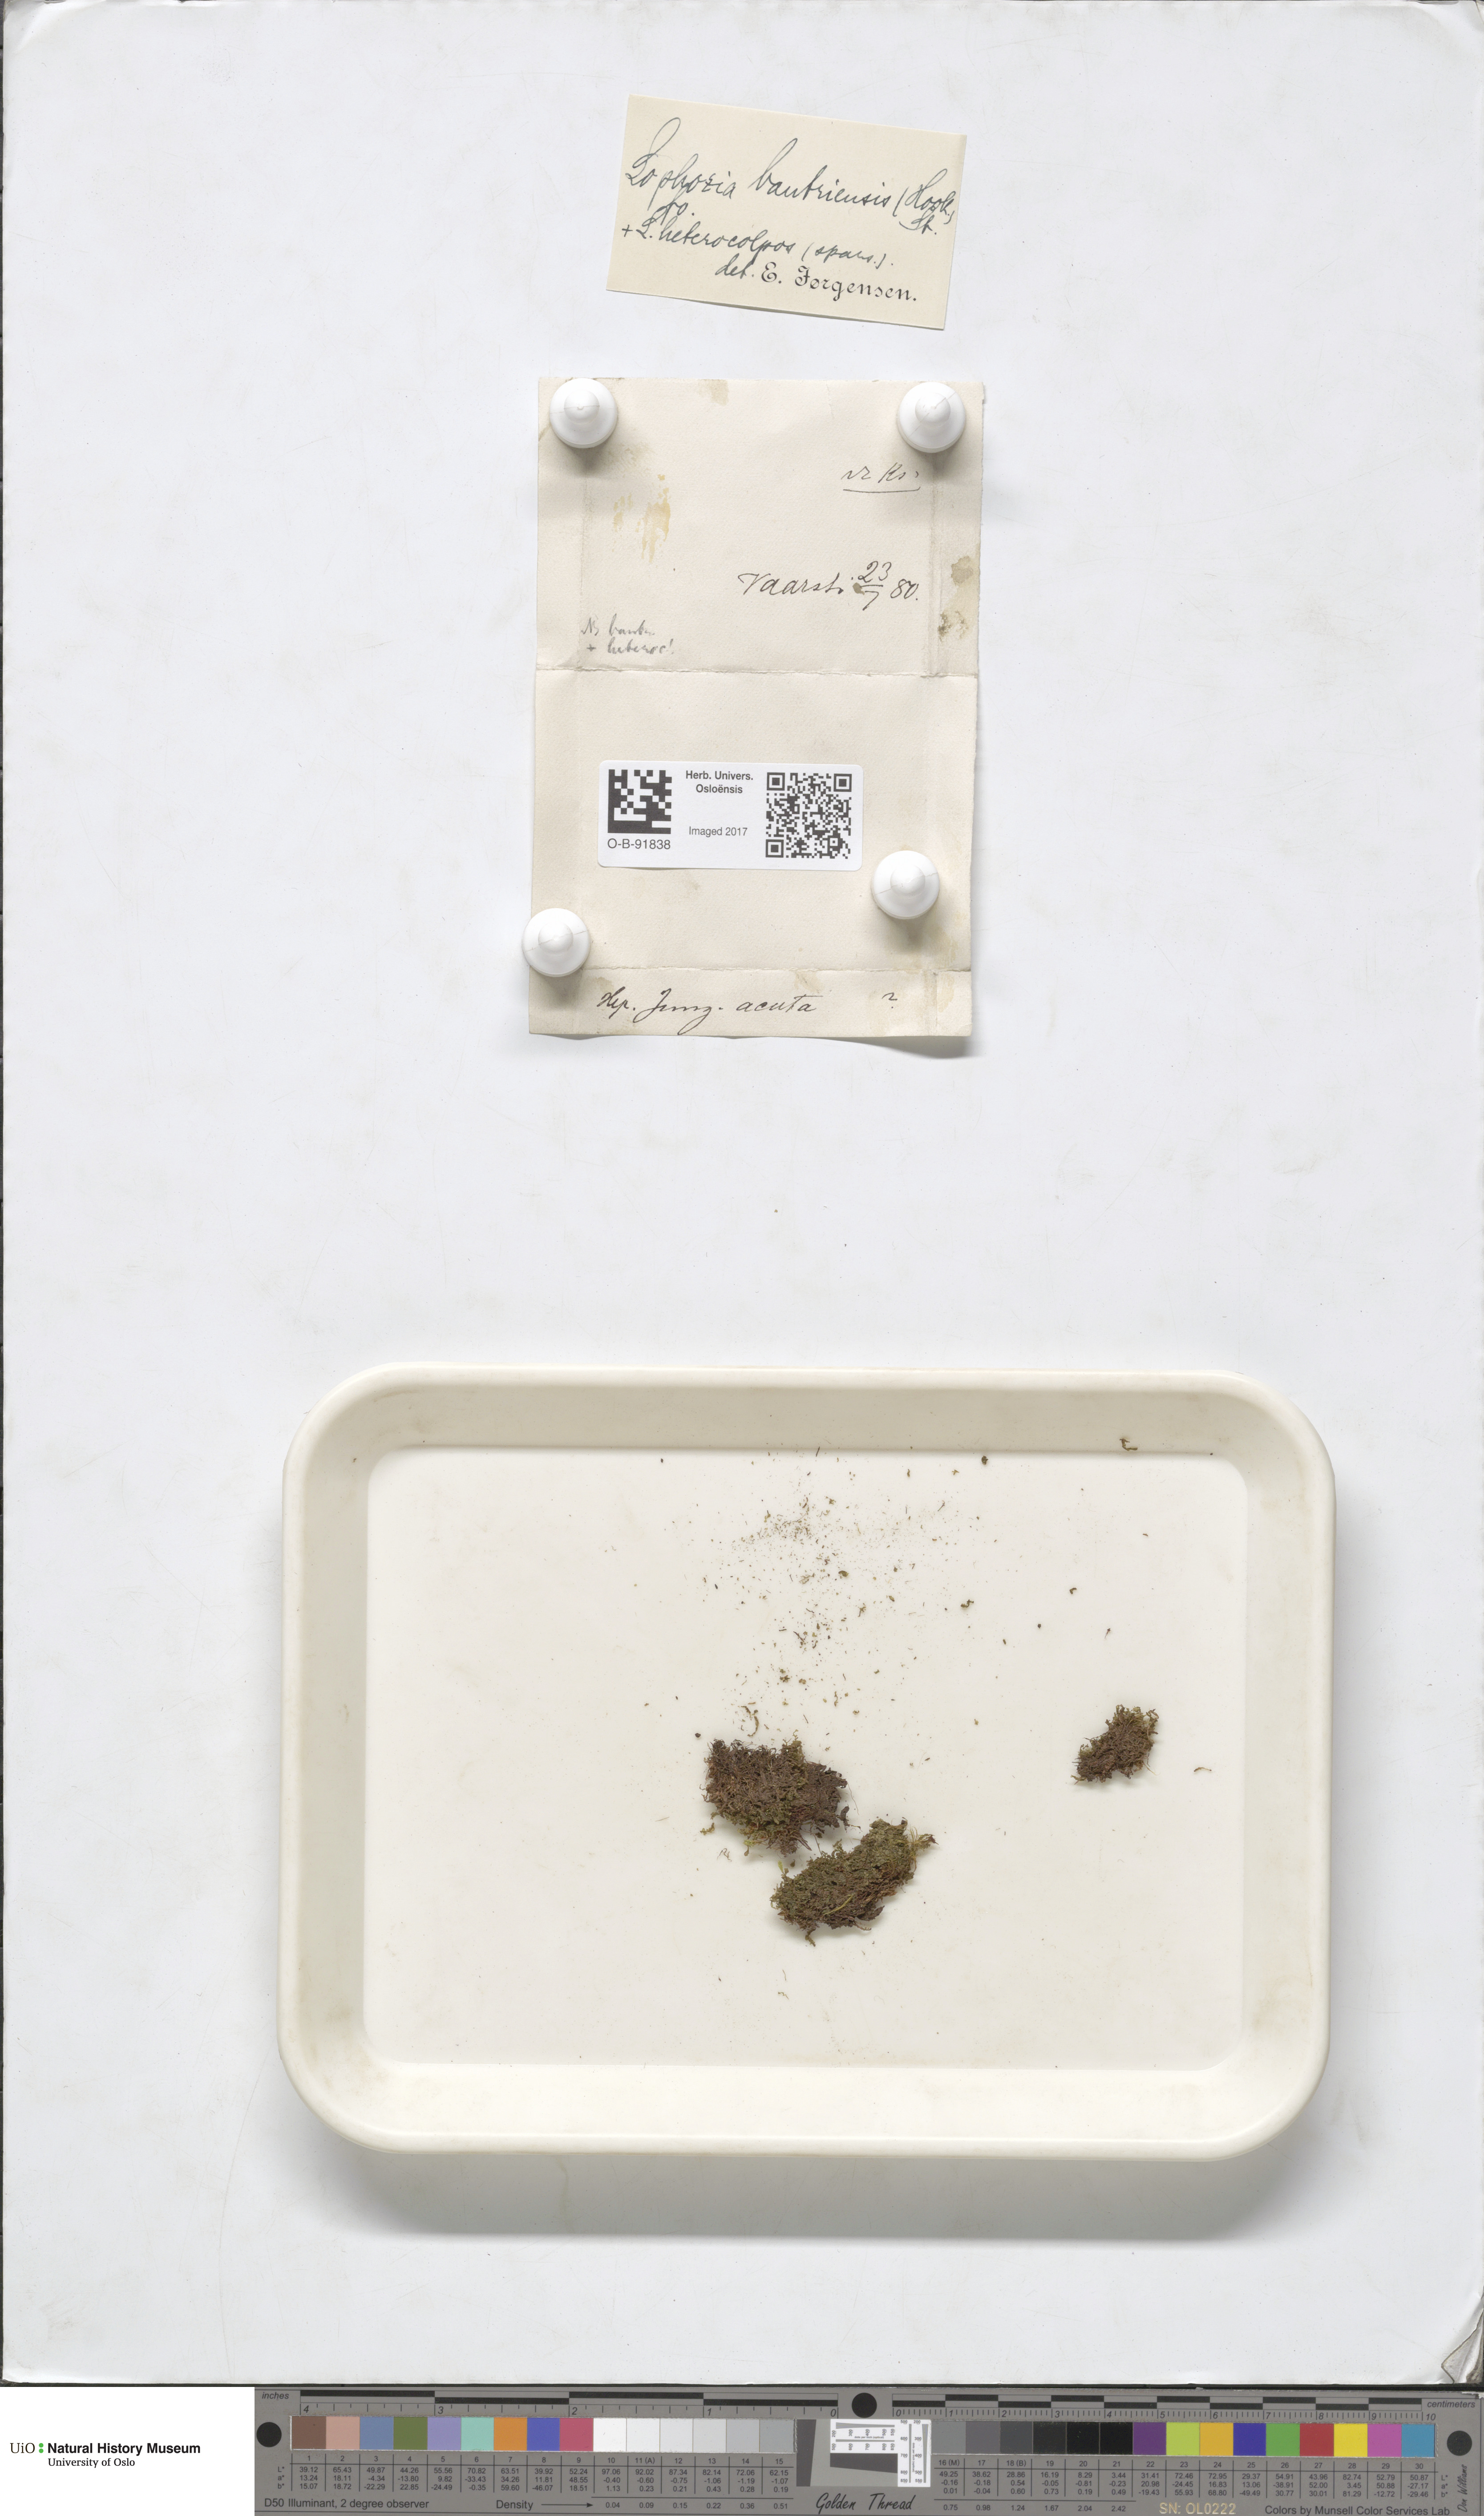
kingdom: Plantae
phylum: Marchantiophyta
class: Jungermanniopsida
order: Jungermanniales
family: Jungermanniaceae
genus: Mesoptychia
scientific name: Mesoptychia bantriensis
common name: Bantry notchwort
